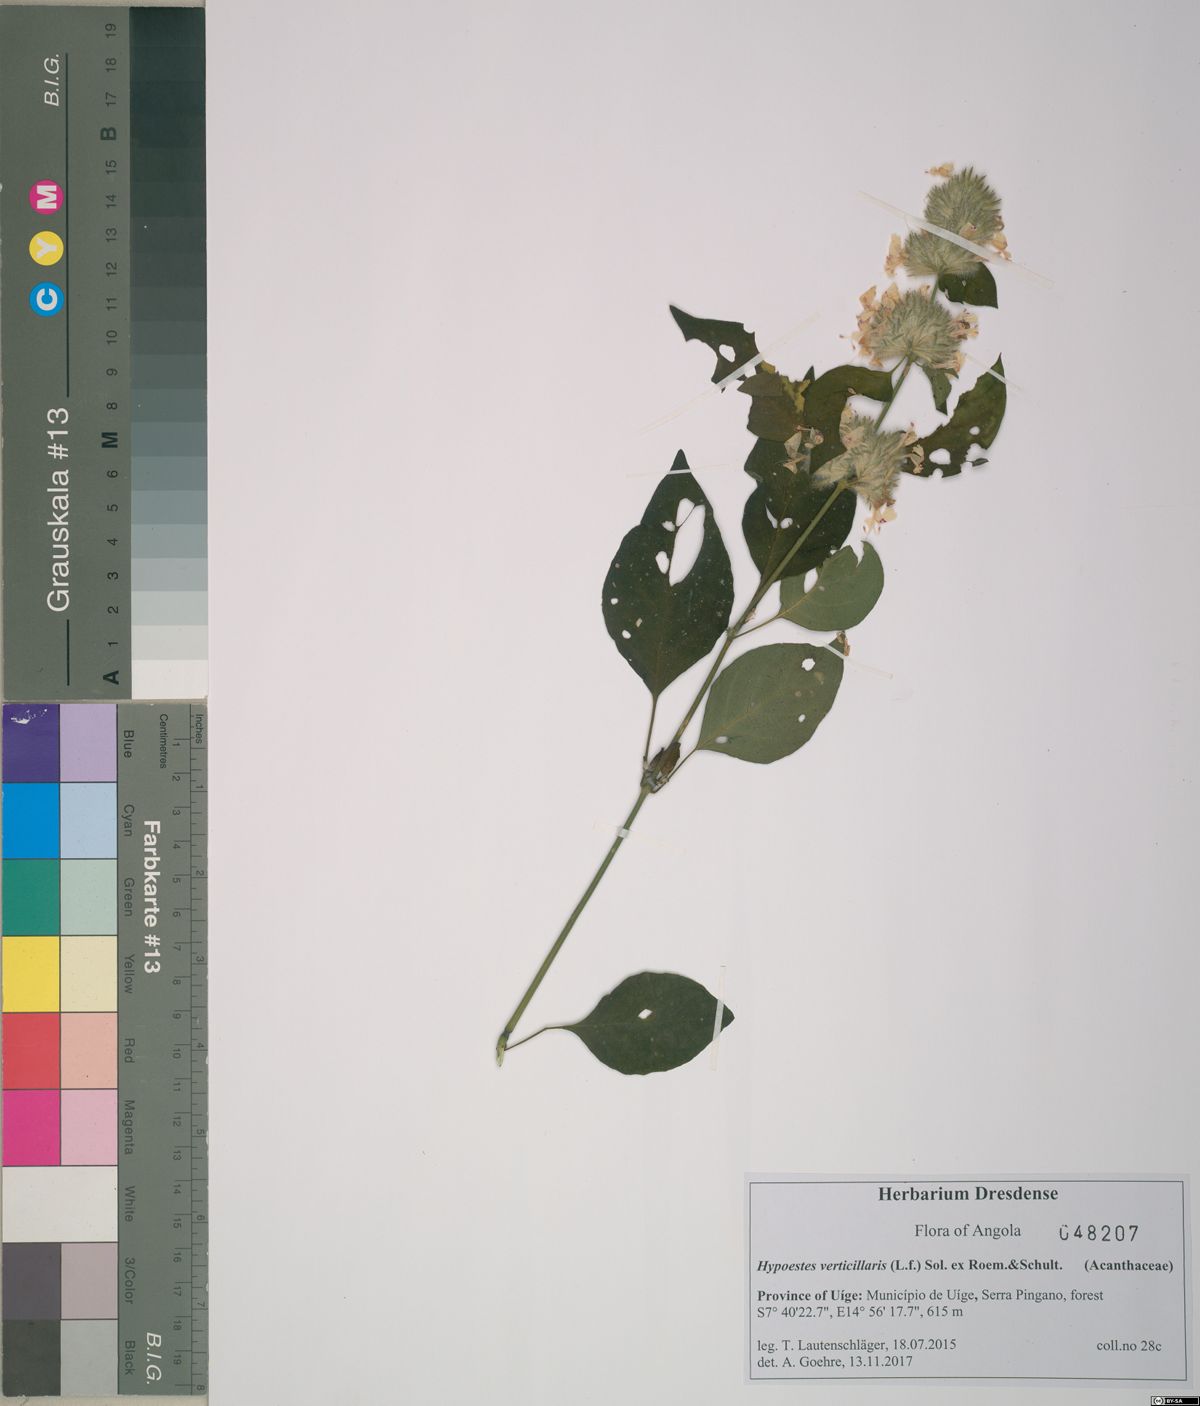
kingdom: Plantae
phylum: Tracheophyta
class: Magnoliopsida
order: Lamiales
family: Acanthaceae
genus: Hypoestes
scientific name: Hypoestes forskaolii
